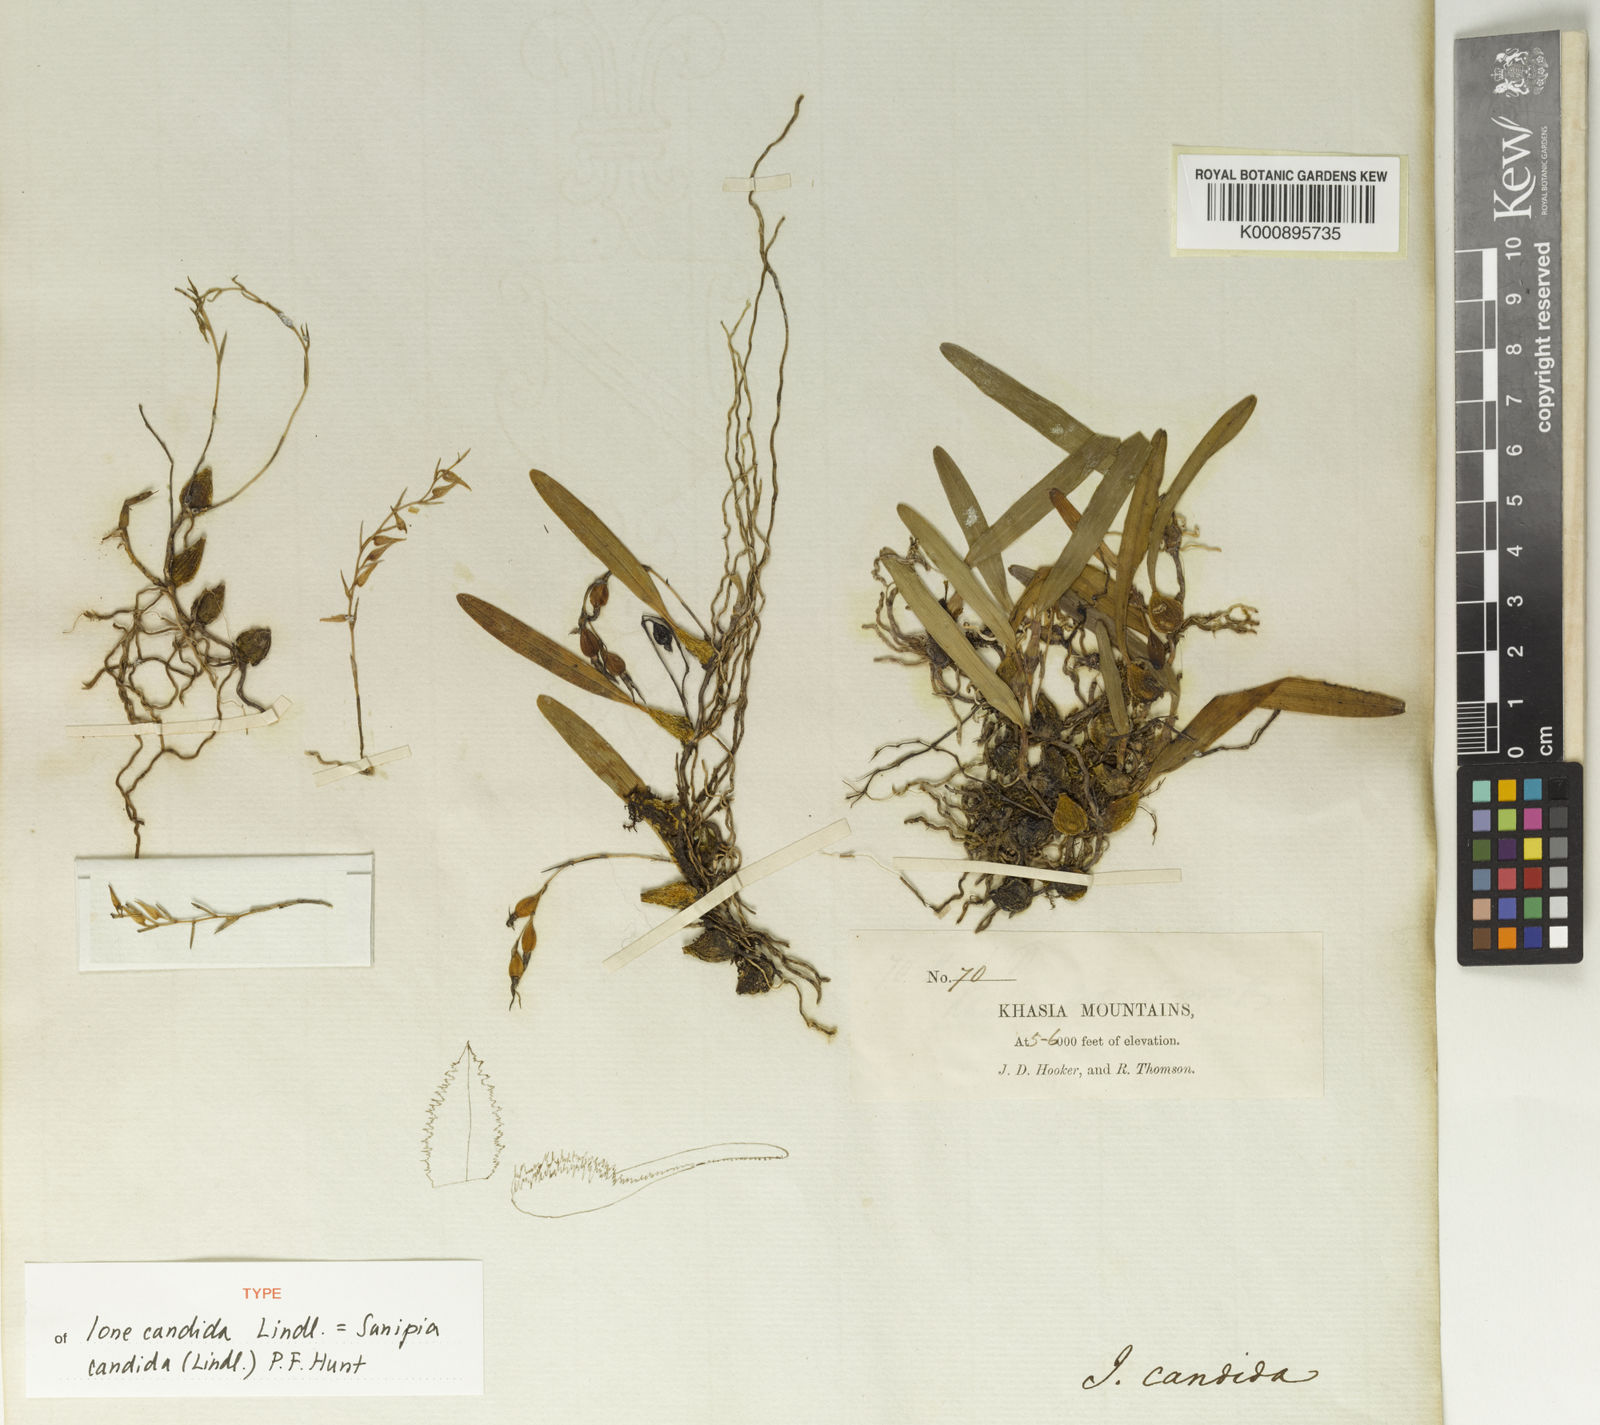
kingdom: Plantae
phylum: Tracheophyta
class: Liliopsida
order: Asparagales
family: Orchidaceae
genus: Bulbophyllum
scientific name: Bulbophyllum candidum
